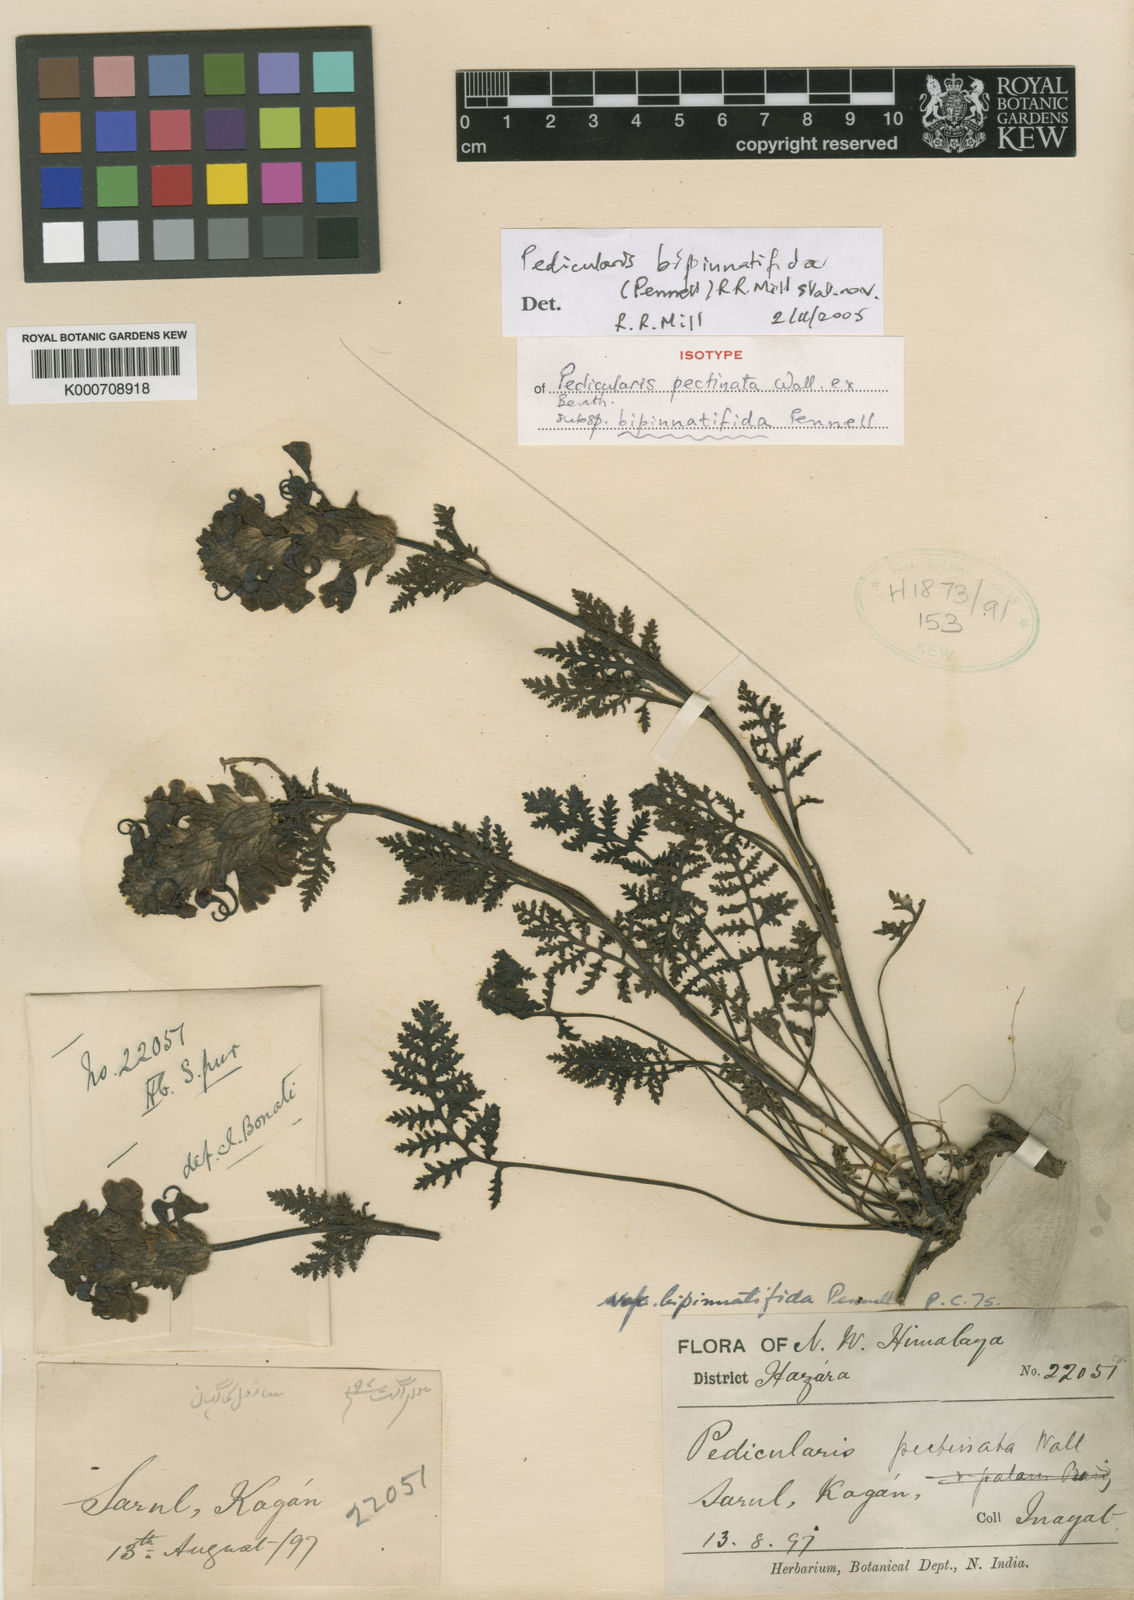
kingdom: Plantae
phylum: Tracheophyta
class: Magnoliopsida
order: Lamiales
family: Orobanchaceae
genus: Pedicularis
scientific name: Pedicularis bipinnatifida
